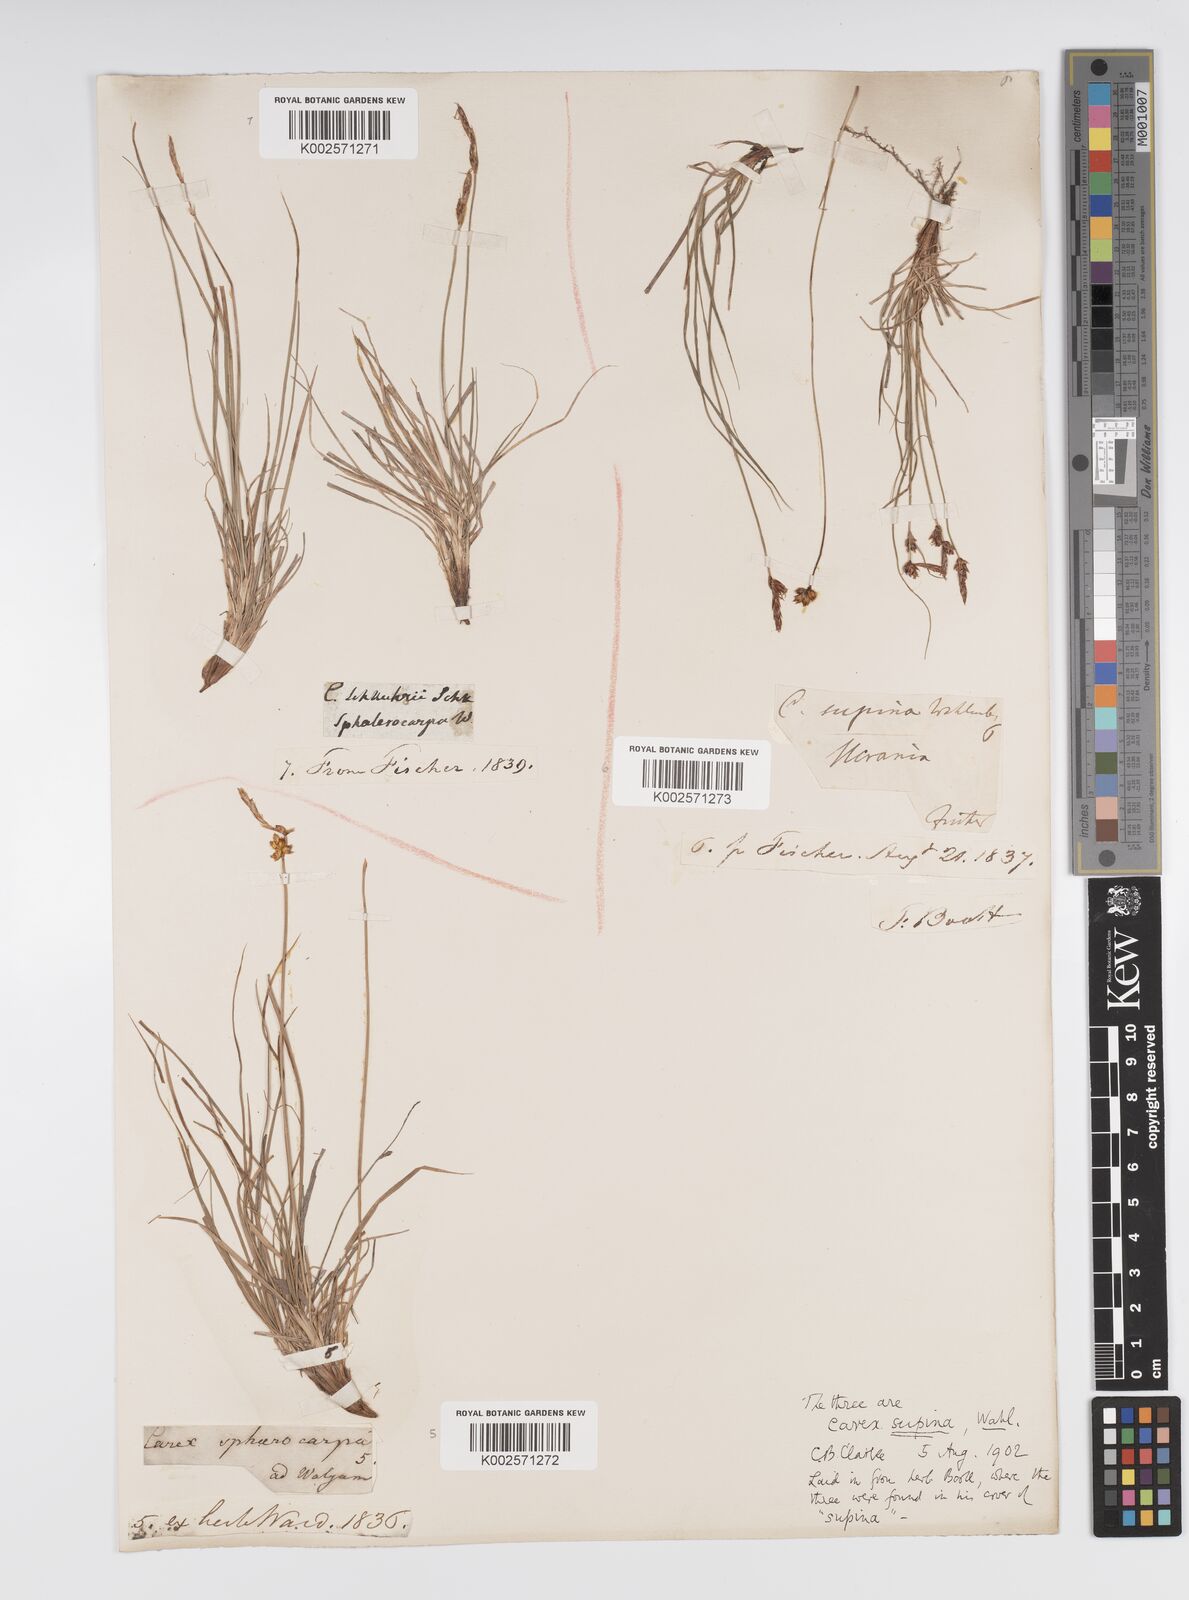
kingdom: Plantae
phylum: Tracheophyta
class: Liliopsida
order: Poales
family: Cyperaceae
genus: Carex
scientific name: Carex supina
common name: Lying-back sedge
